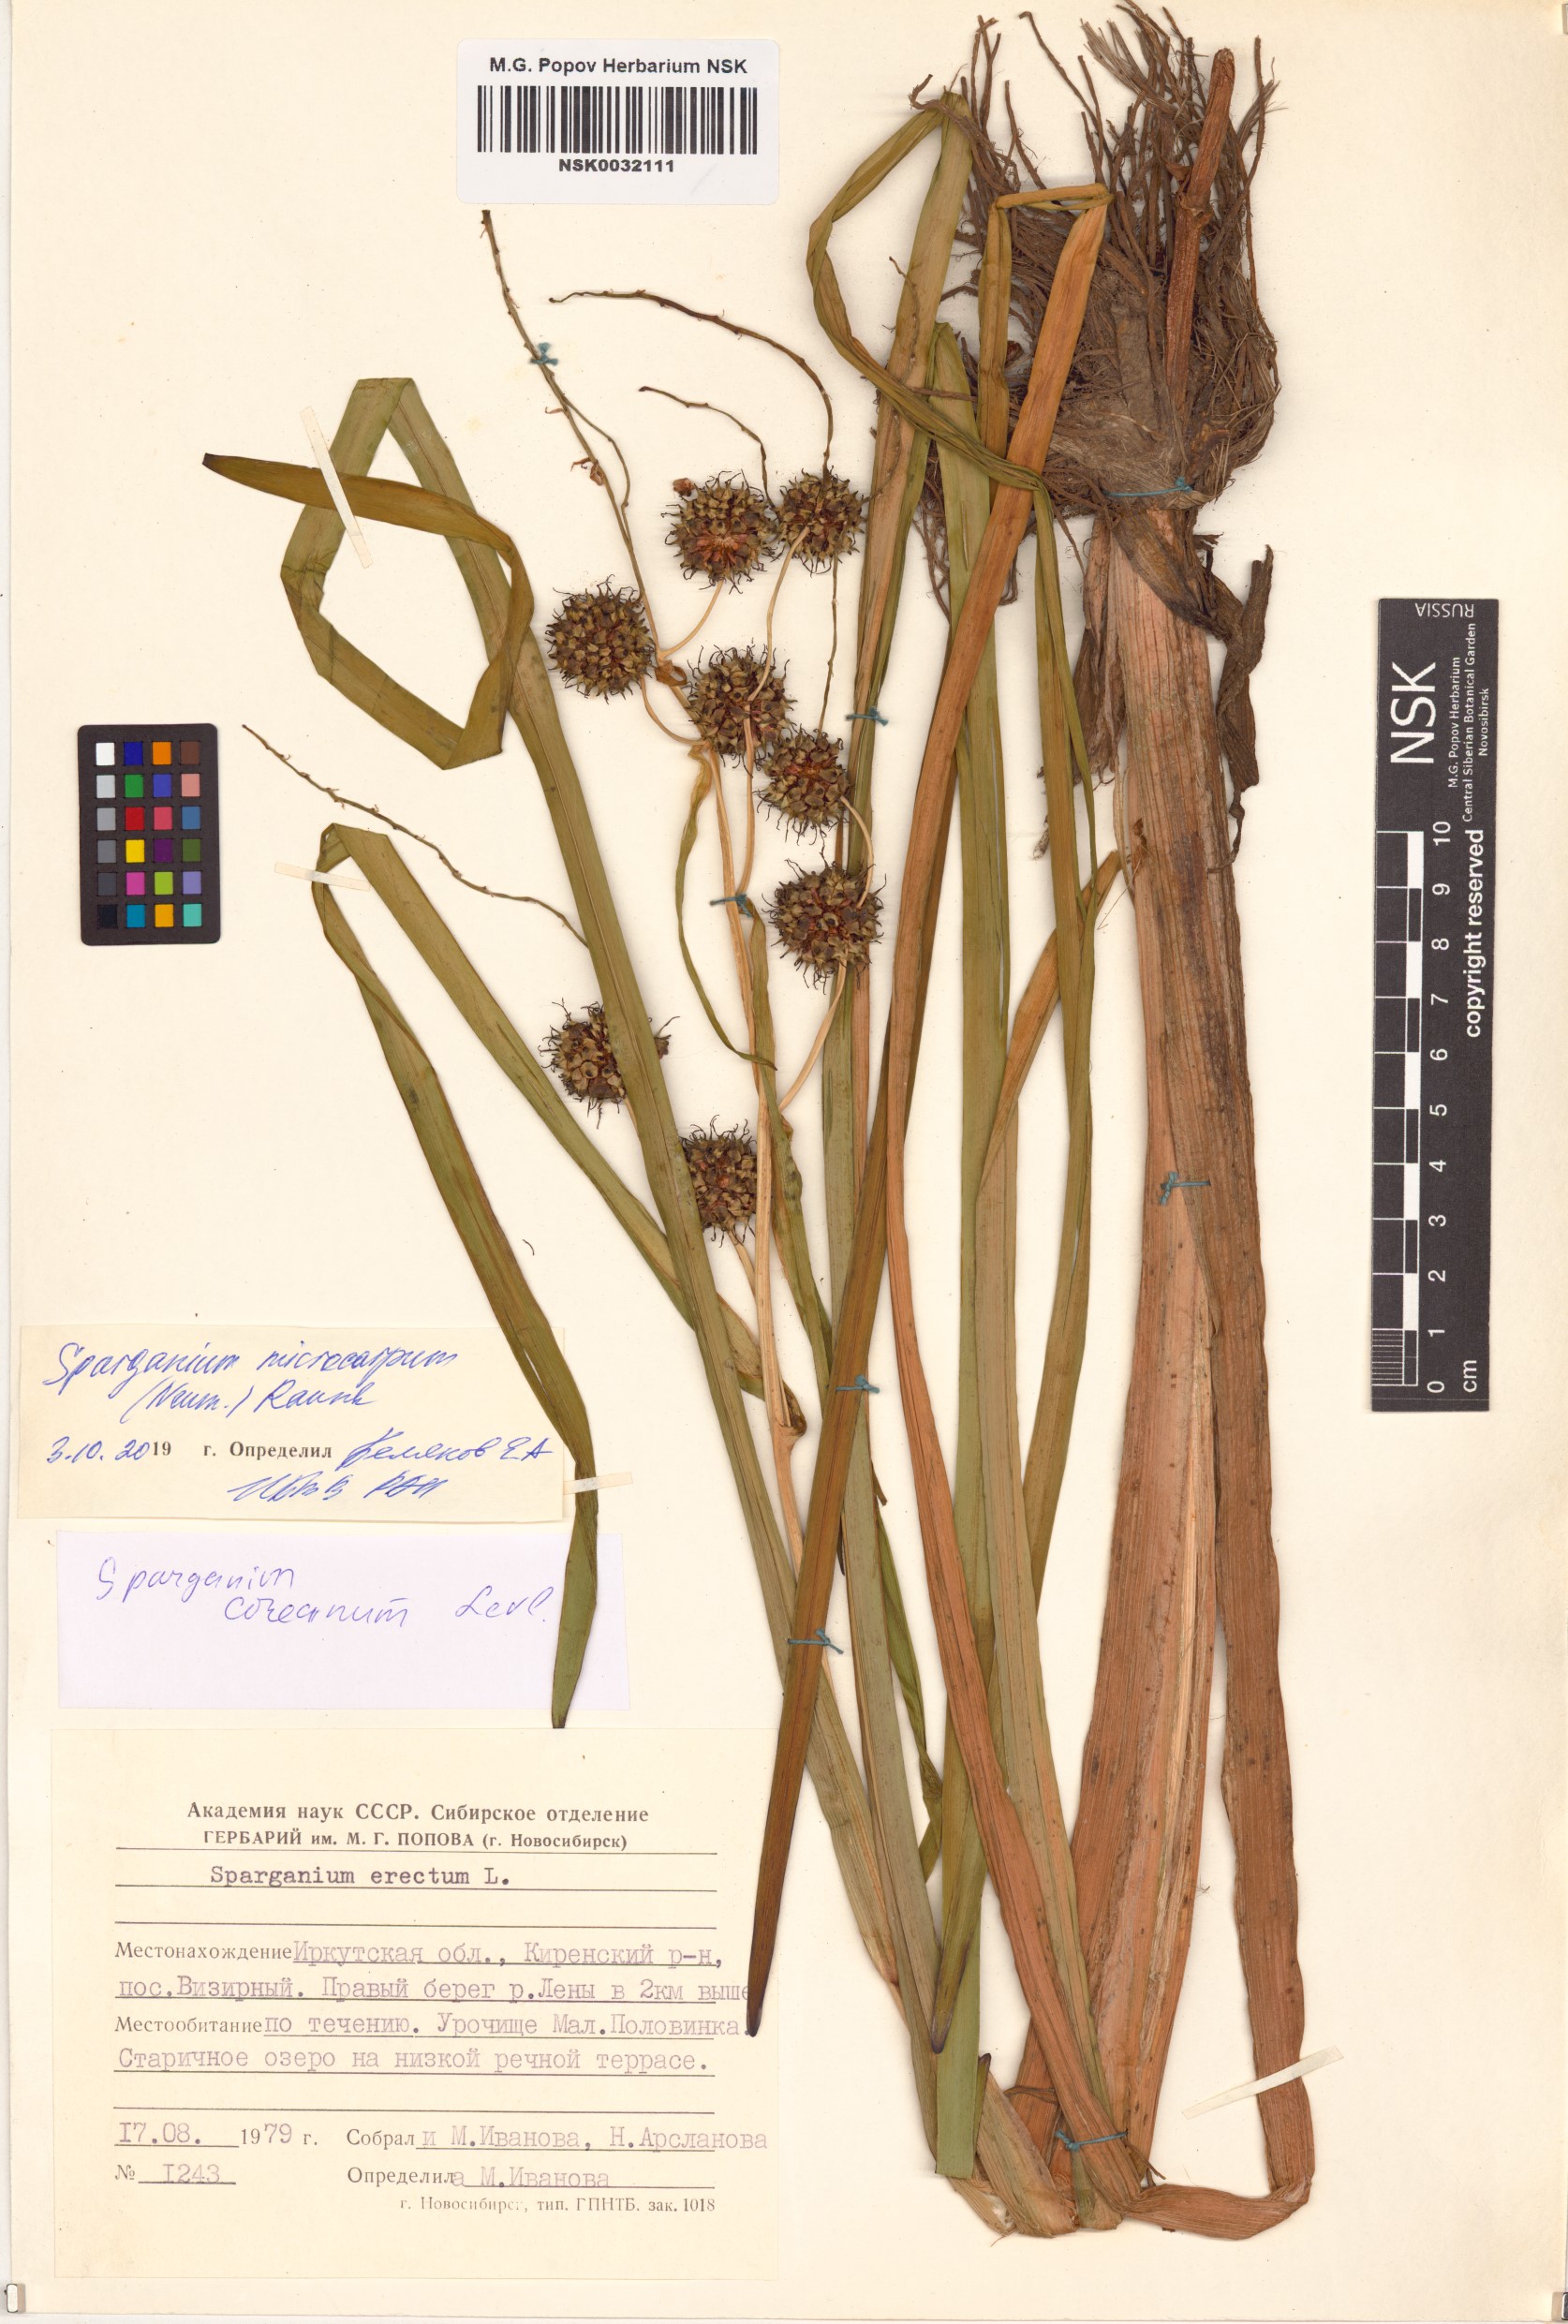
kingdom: Plantae
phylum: Tracheophyta
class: Liliopsida
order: Poales
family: Typhaceae
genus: Sparganium
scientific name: Sparganium erectum
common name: Branched bur-reed
